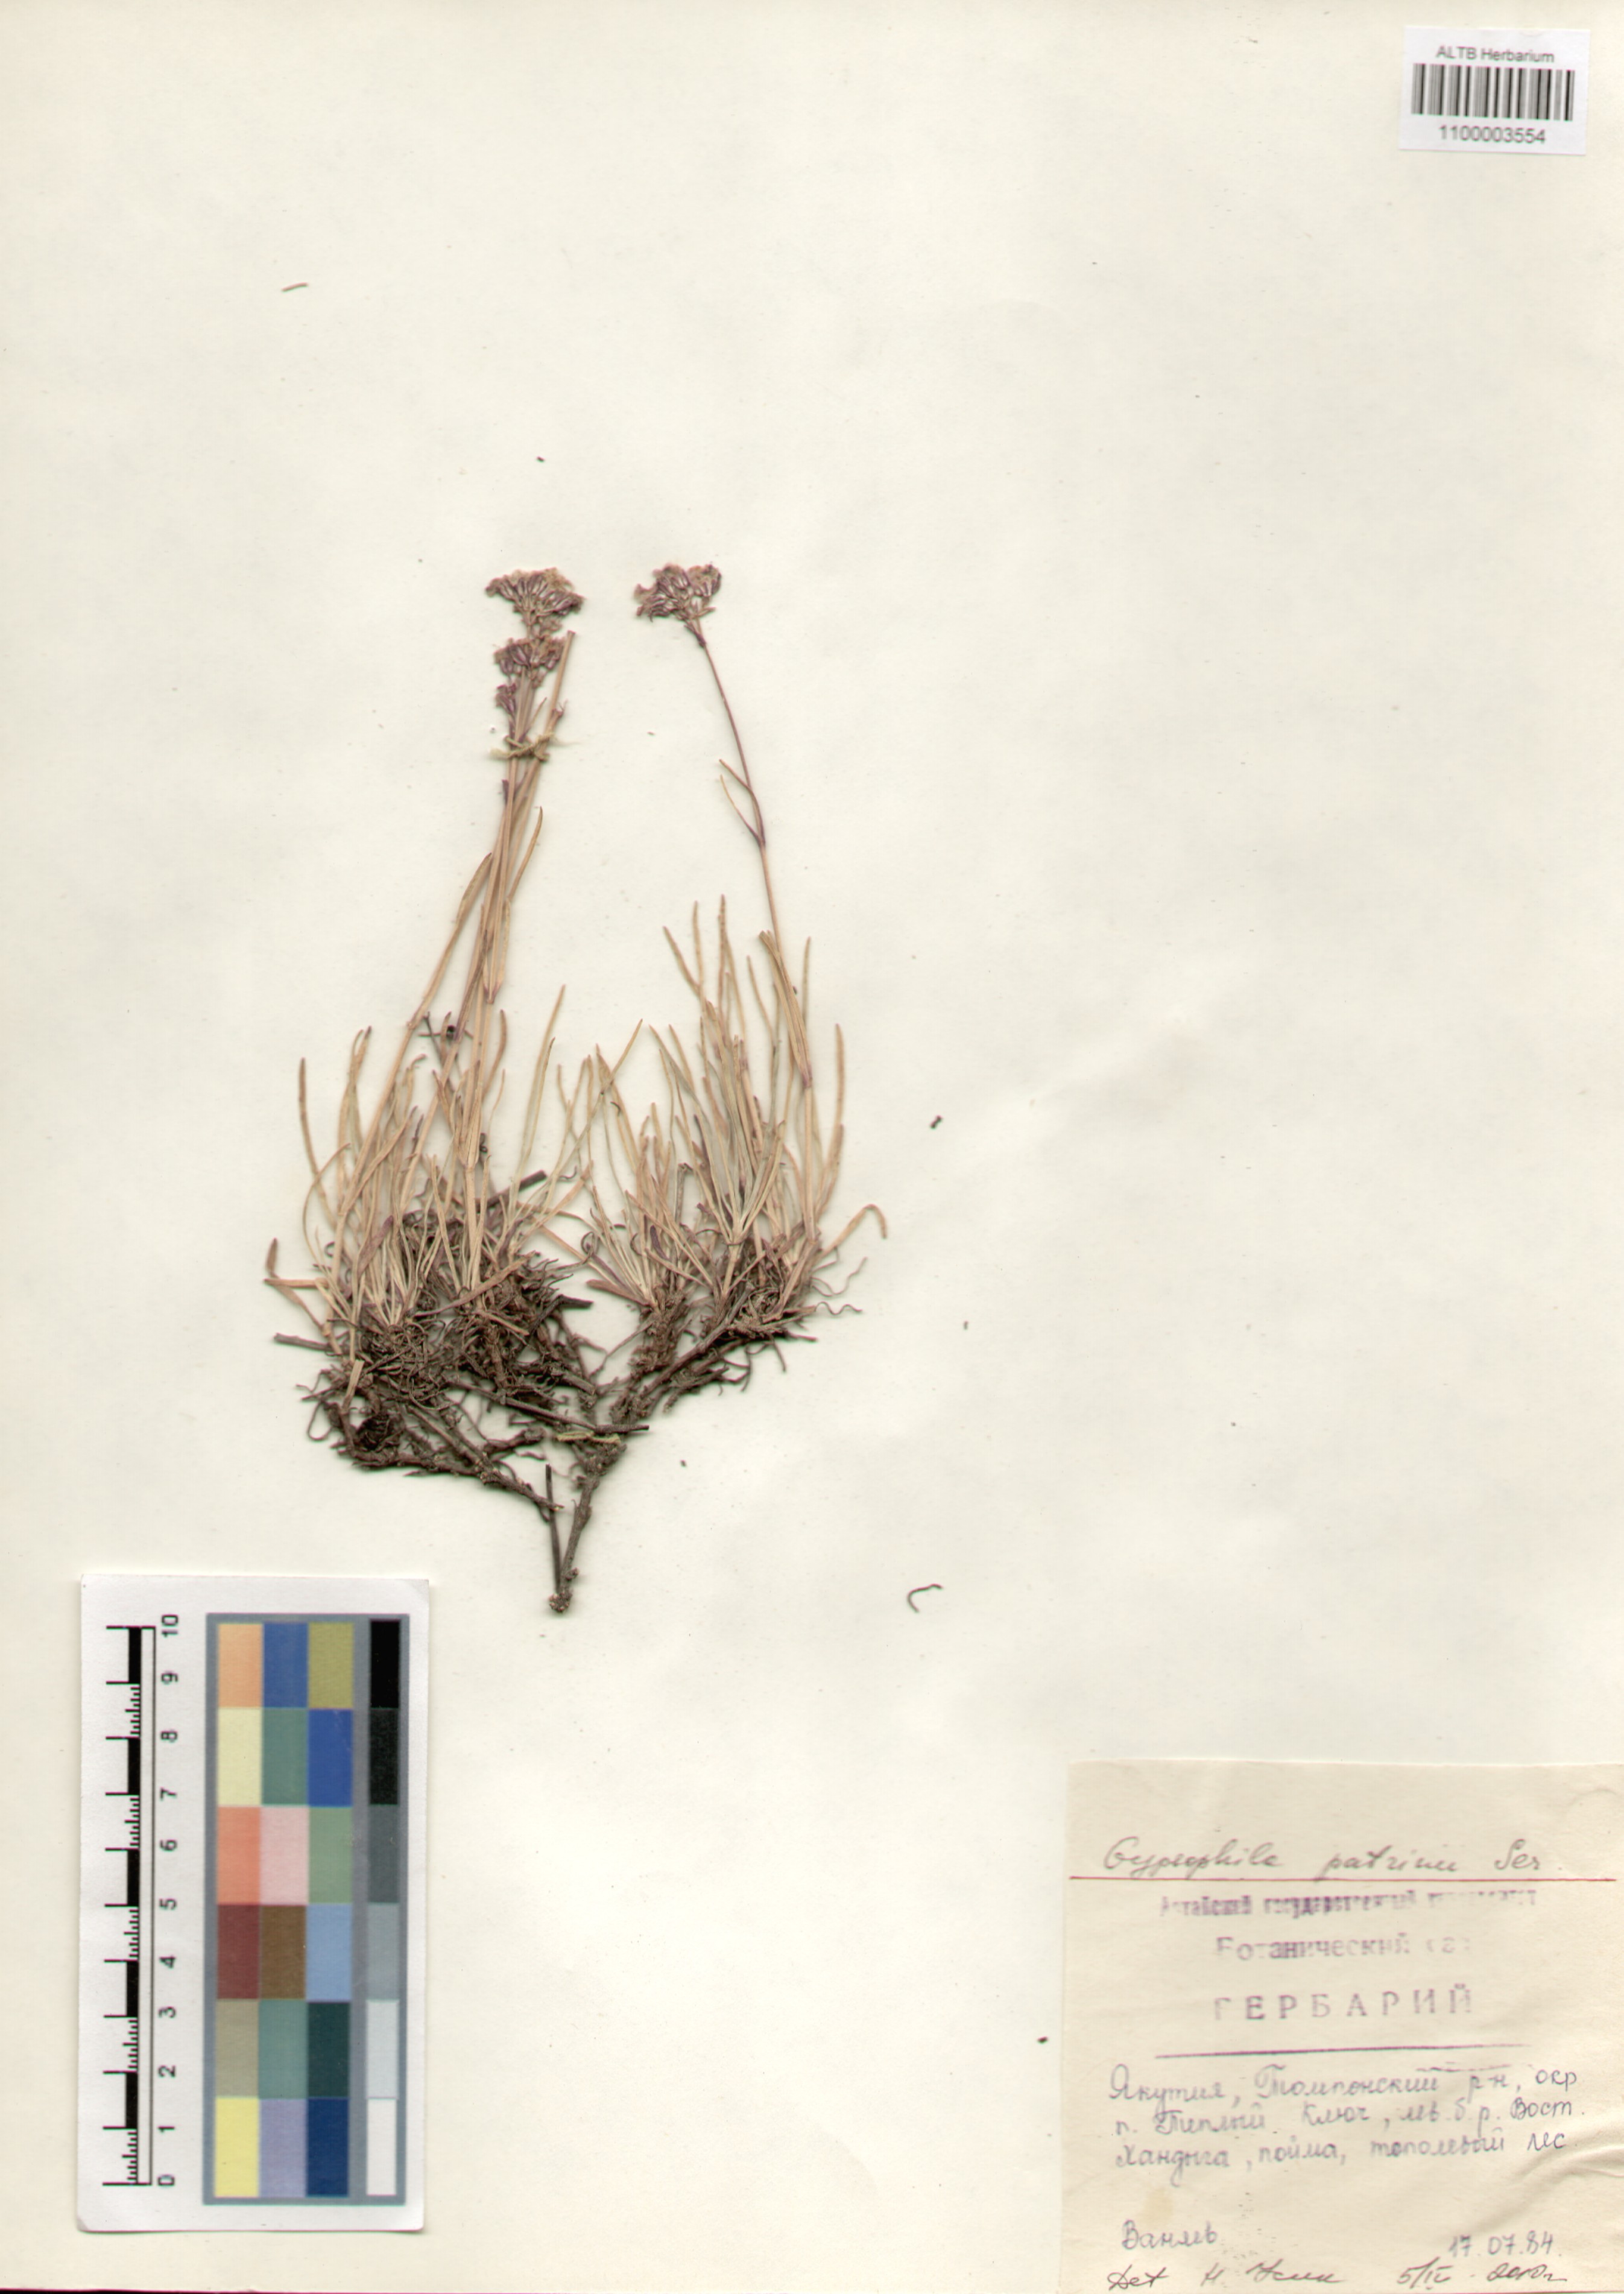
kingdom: Plantae
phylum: Tracheophyta
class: Magnoliopsida
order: Caryophyllales
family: Caryophyllaceae
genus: Gypsophila
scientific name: Gypsophila patrinii
